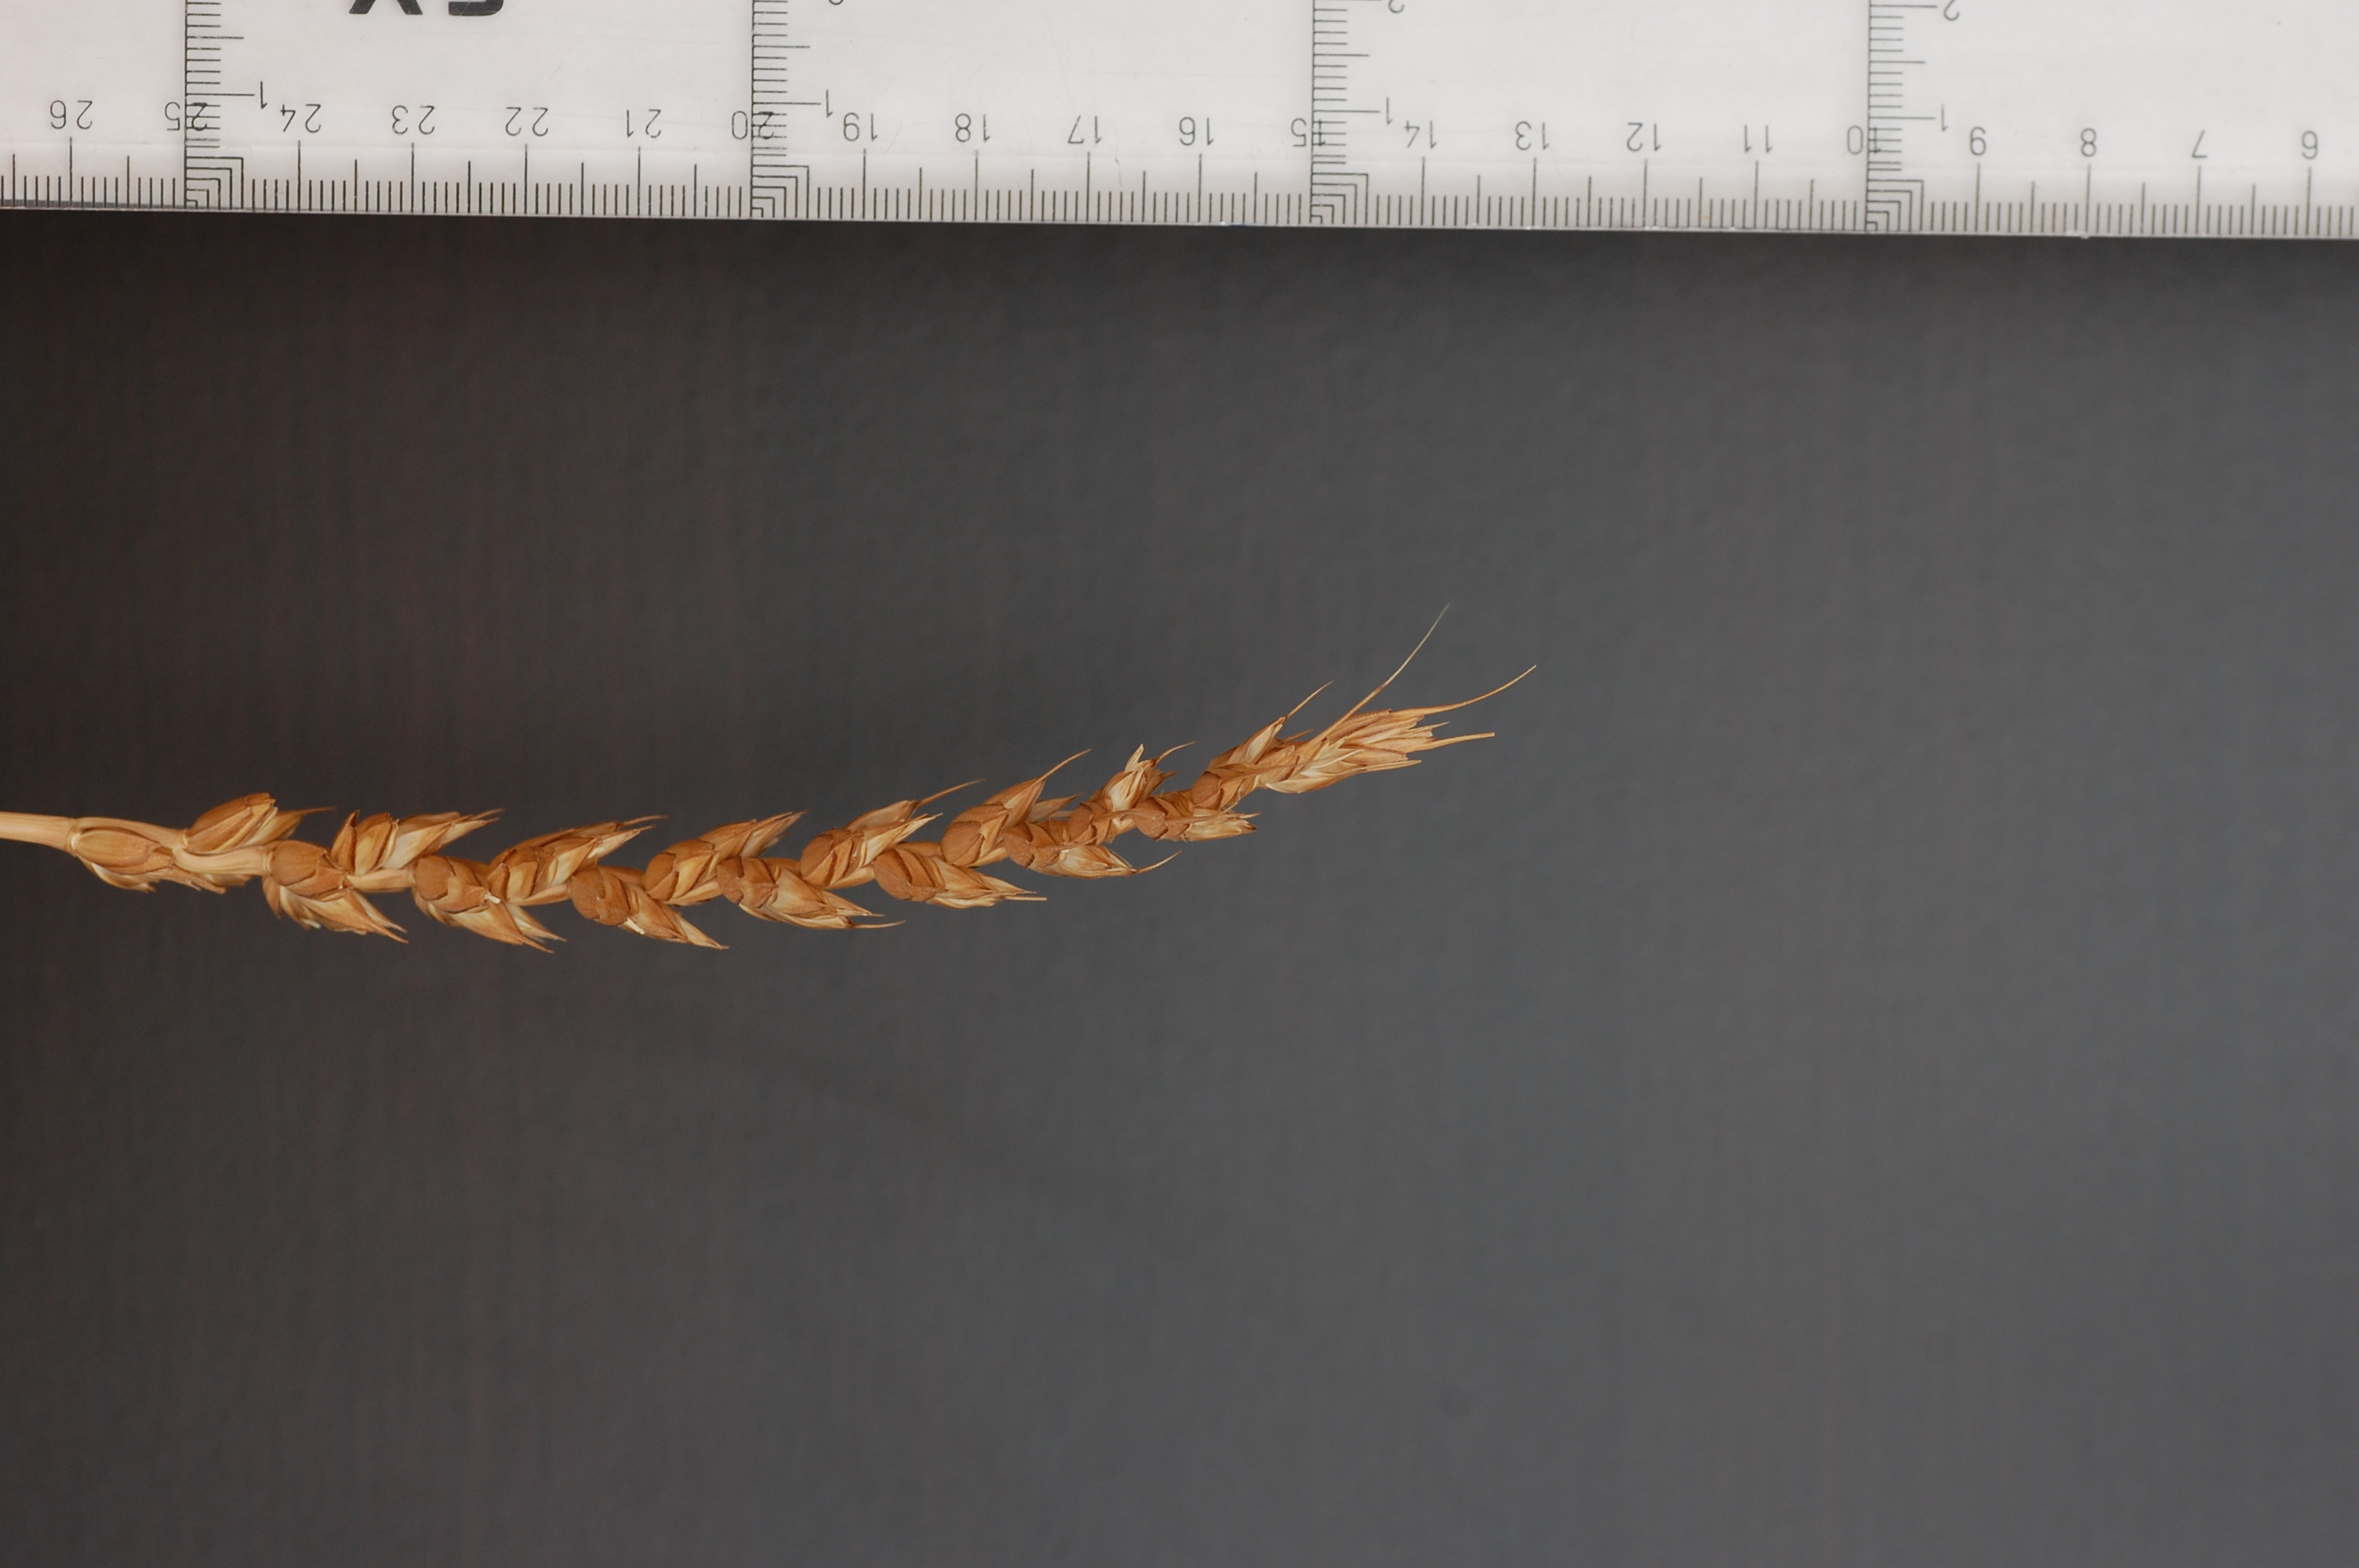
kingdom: Plantae
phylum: Tracheophyta
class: Liliopsida
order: Poales
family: Poaceae
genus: Triticum
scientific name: Triticum aestivum
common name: Common wheat
